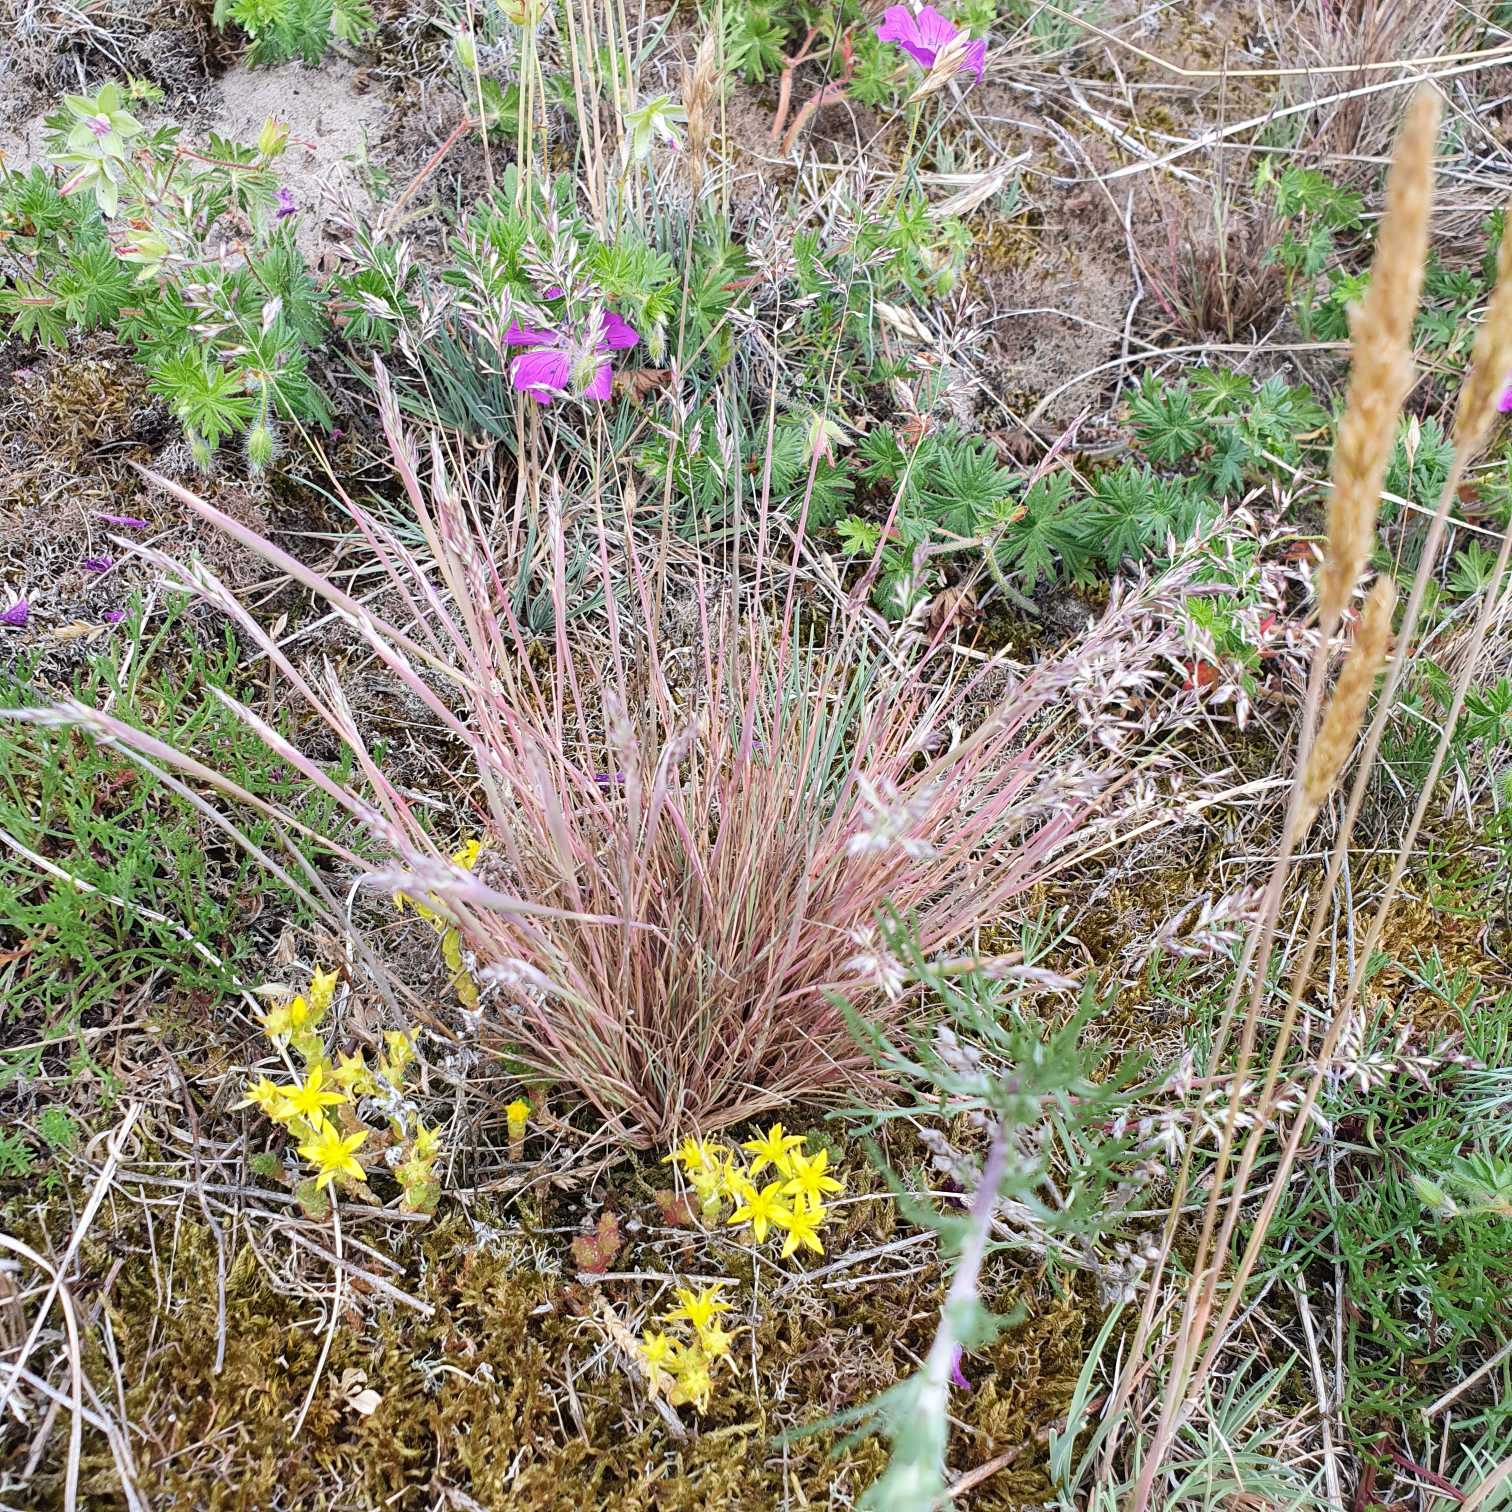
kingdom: Plantae
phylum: Tracheophyta
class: Liliopsida
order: Poales
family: Poaceae
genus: Corynephorus
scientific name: Corynephorus canescens
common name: Sandskæg
